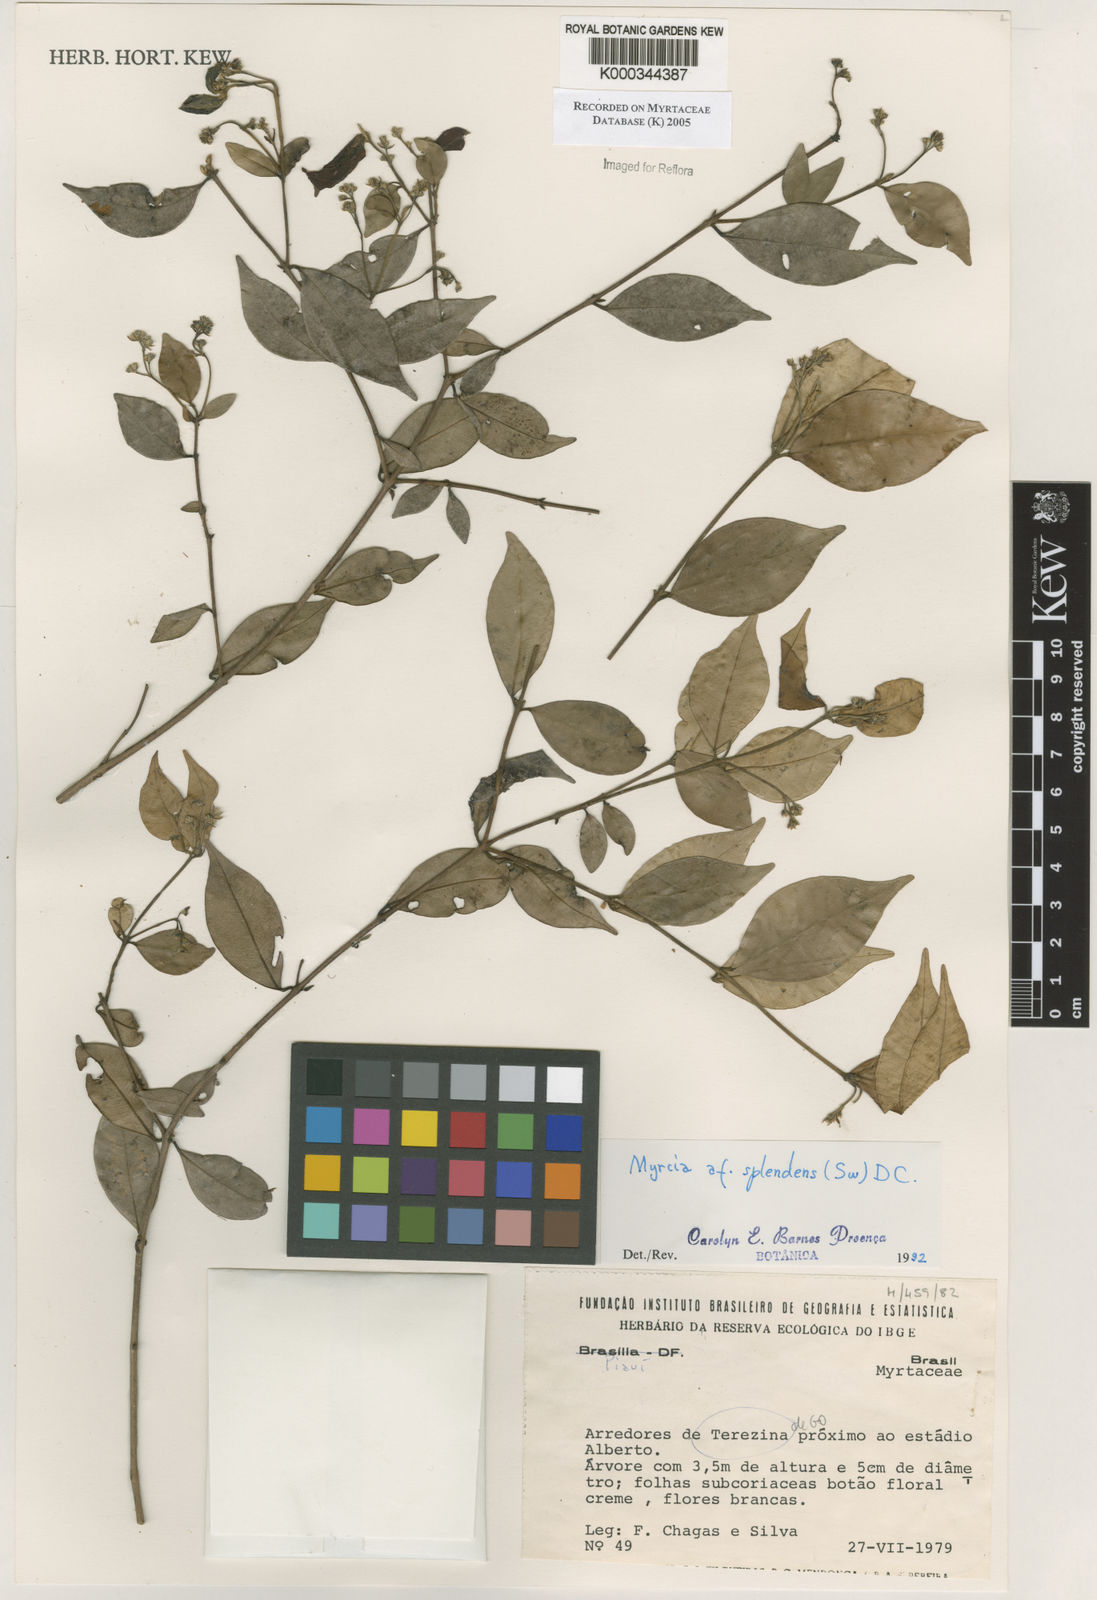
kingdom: Plantae
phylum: Tracheophyta
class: Magnoliopsida
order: Myrtales
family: Myrtaceae
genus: Myrcia
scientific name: Myrcia splendens
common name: Surinam cherry
